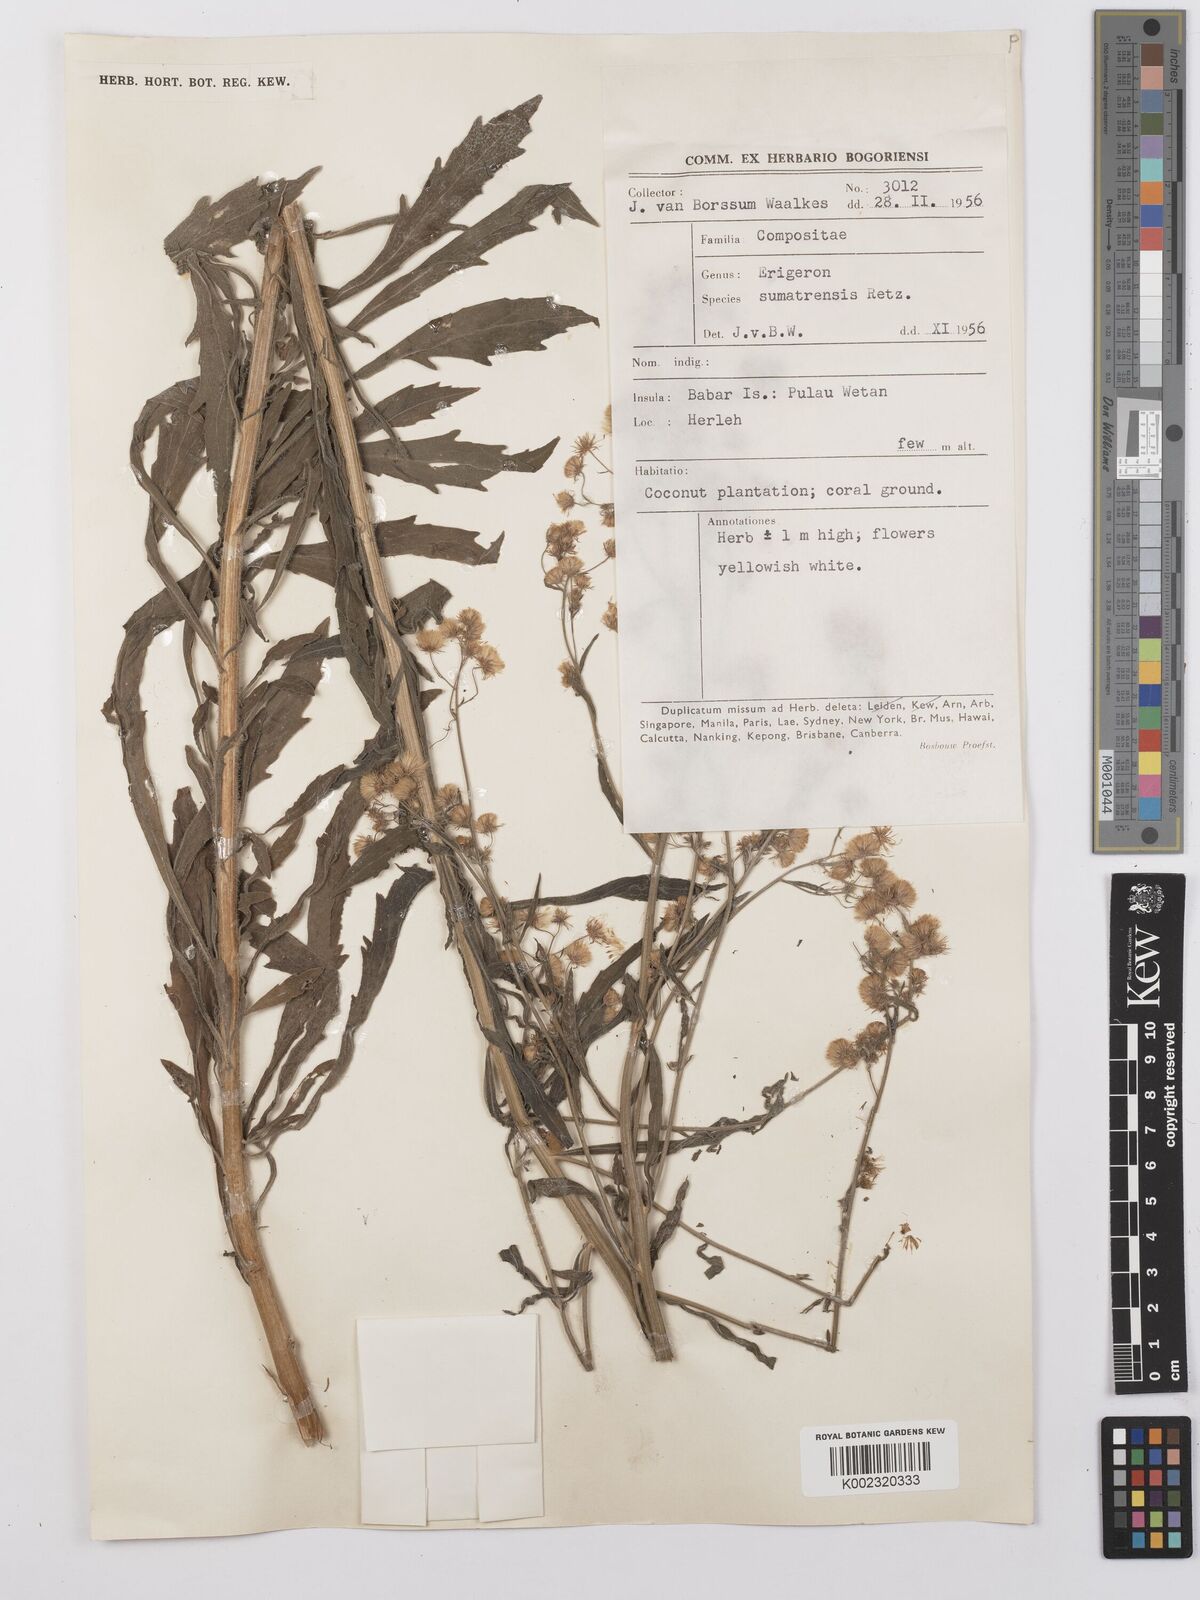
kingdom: Plantae
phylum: Tracheophyta
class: Magnoliopsida
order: Asterales
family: Asteraceae
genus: Erigeron
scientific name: Erigeron sumatrensis
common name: Daisy
